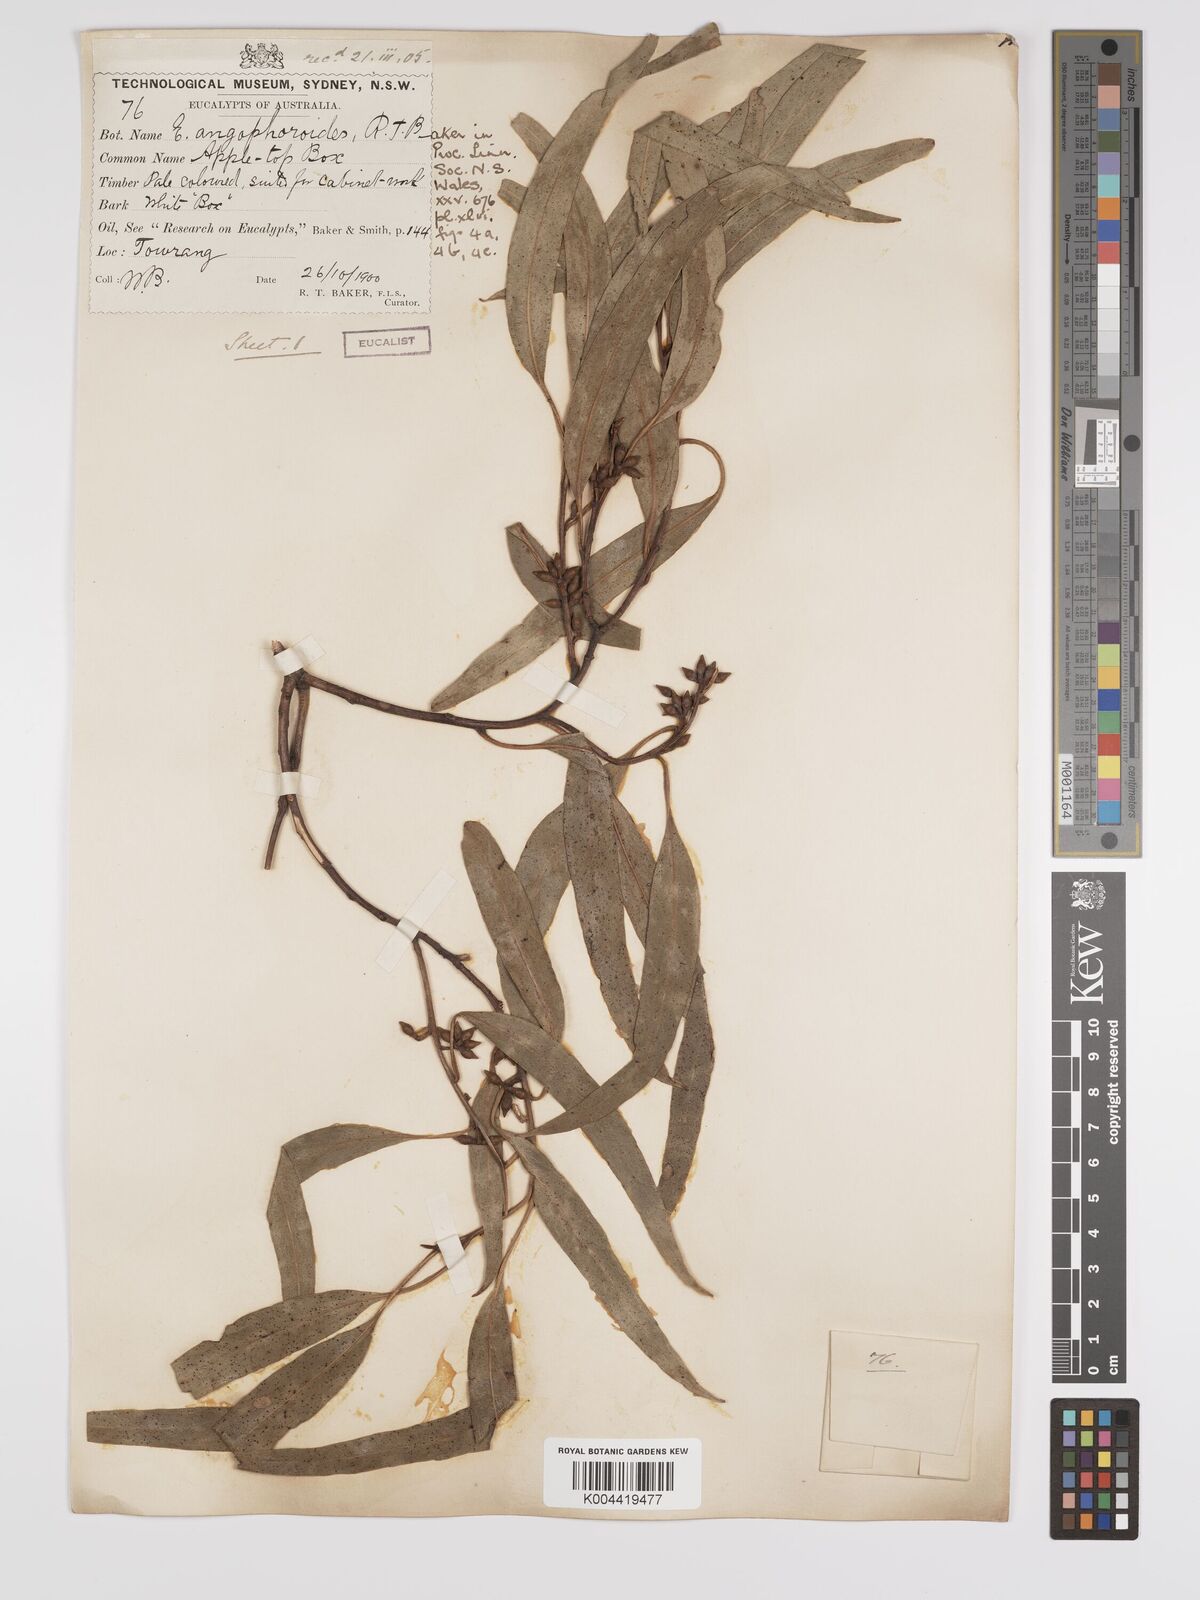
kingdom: Plantae
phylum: Tracheophyta
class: Magnoliopsida
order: Myrtales
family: Myrtaceae
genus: Eucalyptus
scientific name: Eucalyptus angophoroides
